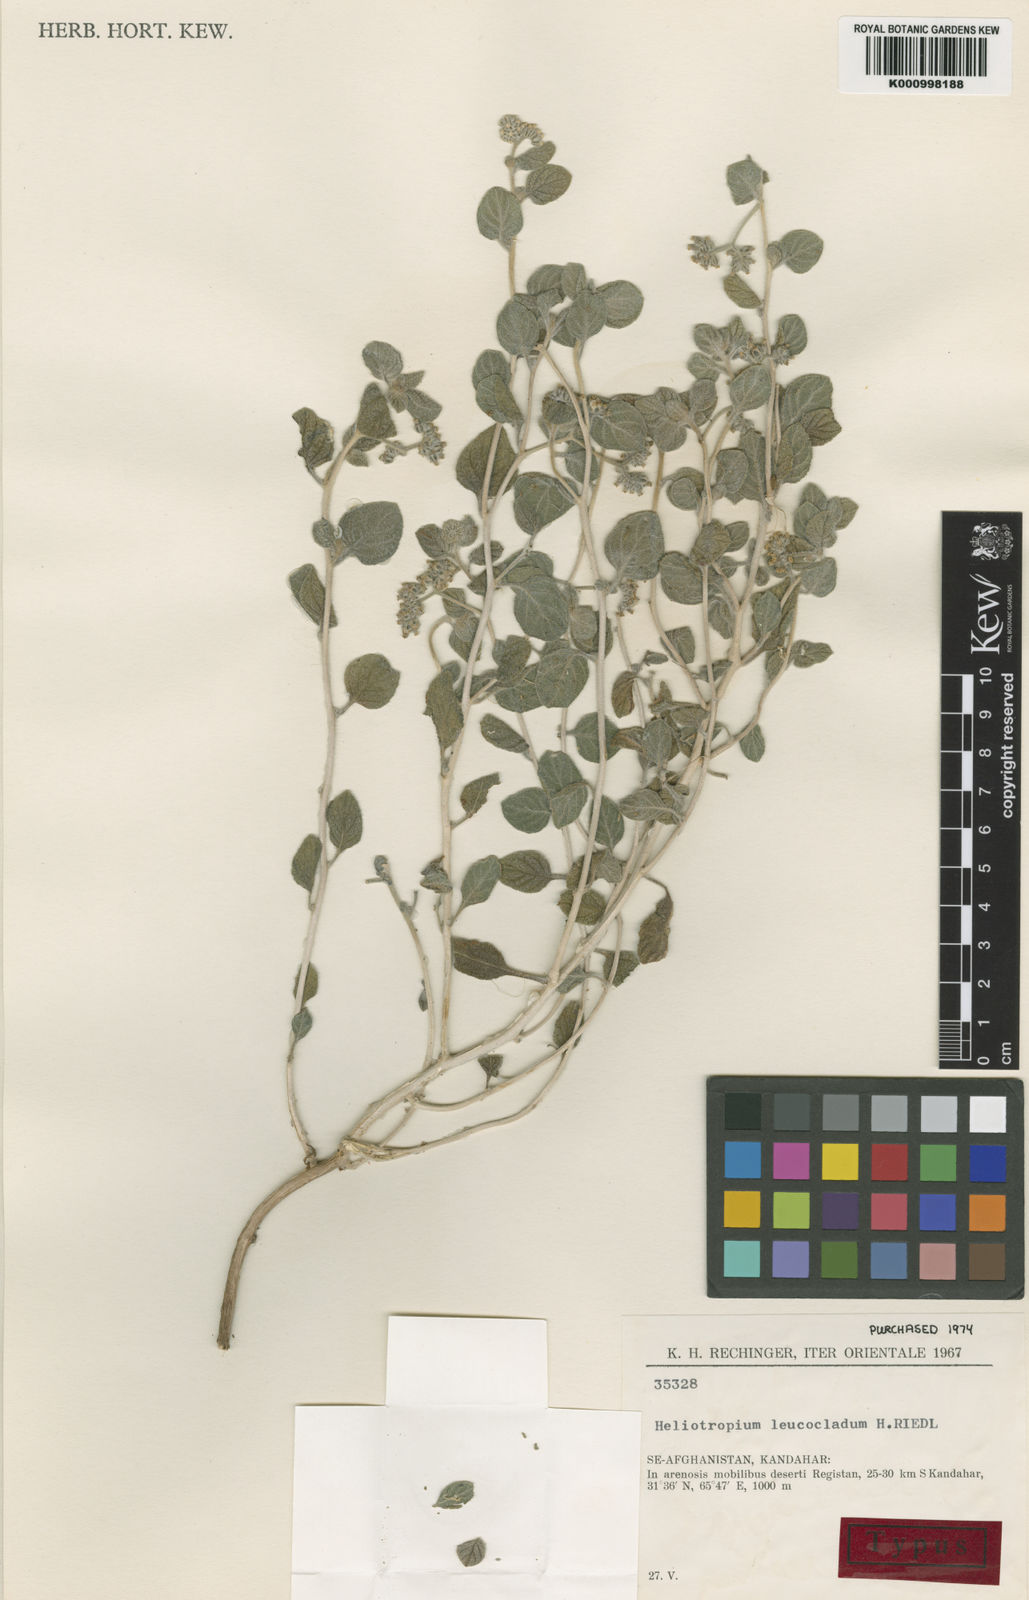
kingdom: Plantae
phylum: Tracheophyta
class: Magnoliopsida
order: Boraginales
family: Heliotropiaceae
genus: Heliotropium
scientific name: Heliotropium arguzioides
